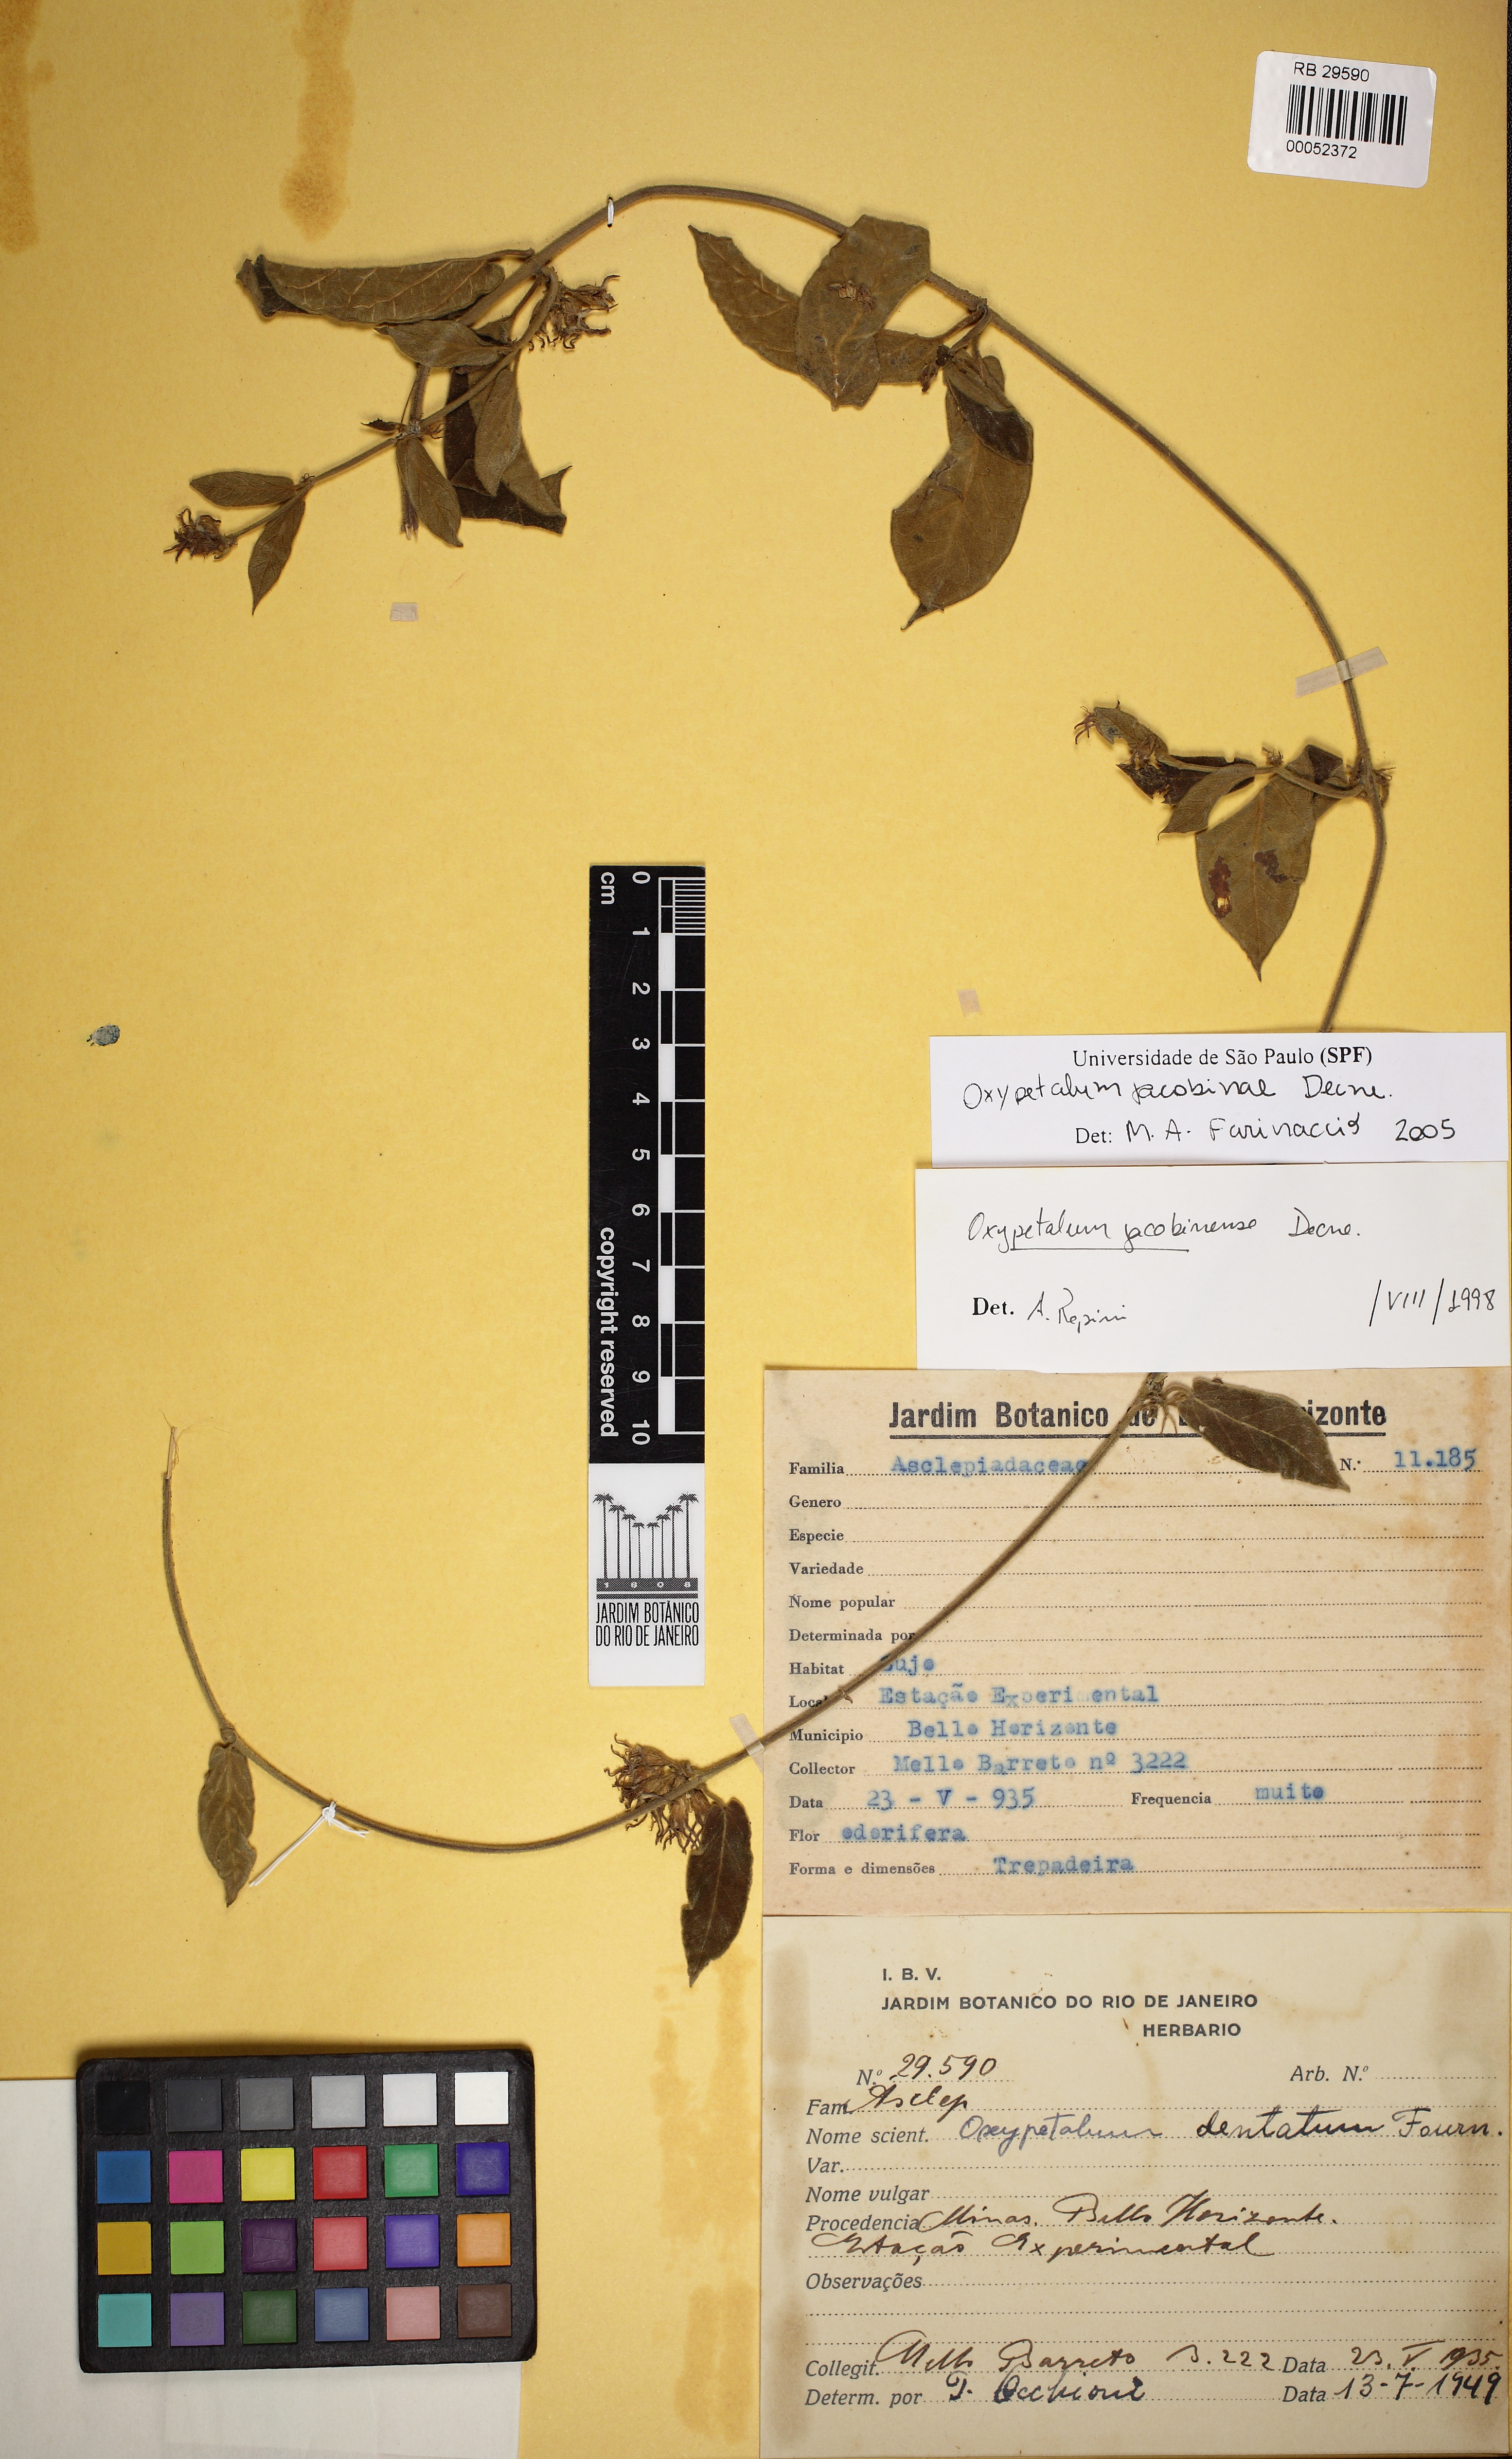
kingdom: Plantae
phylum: Tracheophyta
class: Magnoliopsida
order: Gentianales
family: Apocynaceae
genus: Oxypetalum
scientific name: Oxypetalum jacobinae
